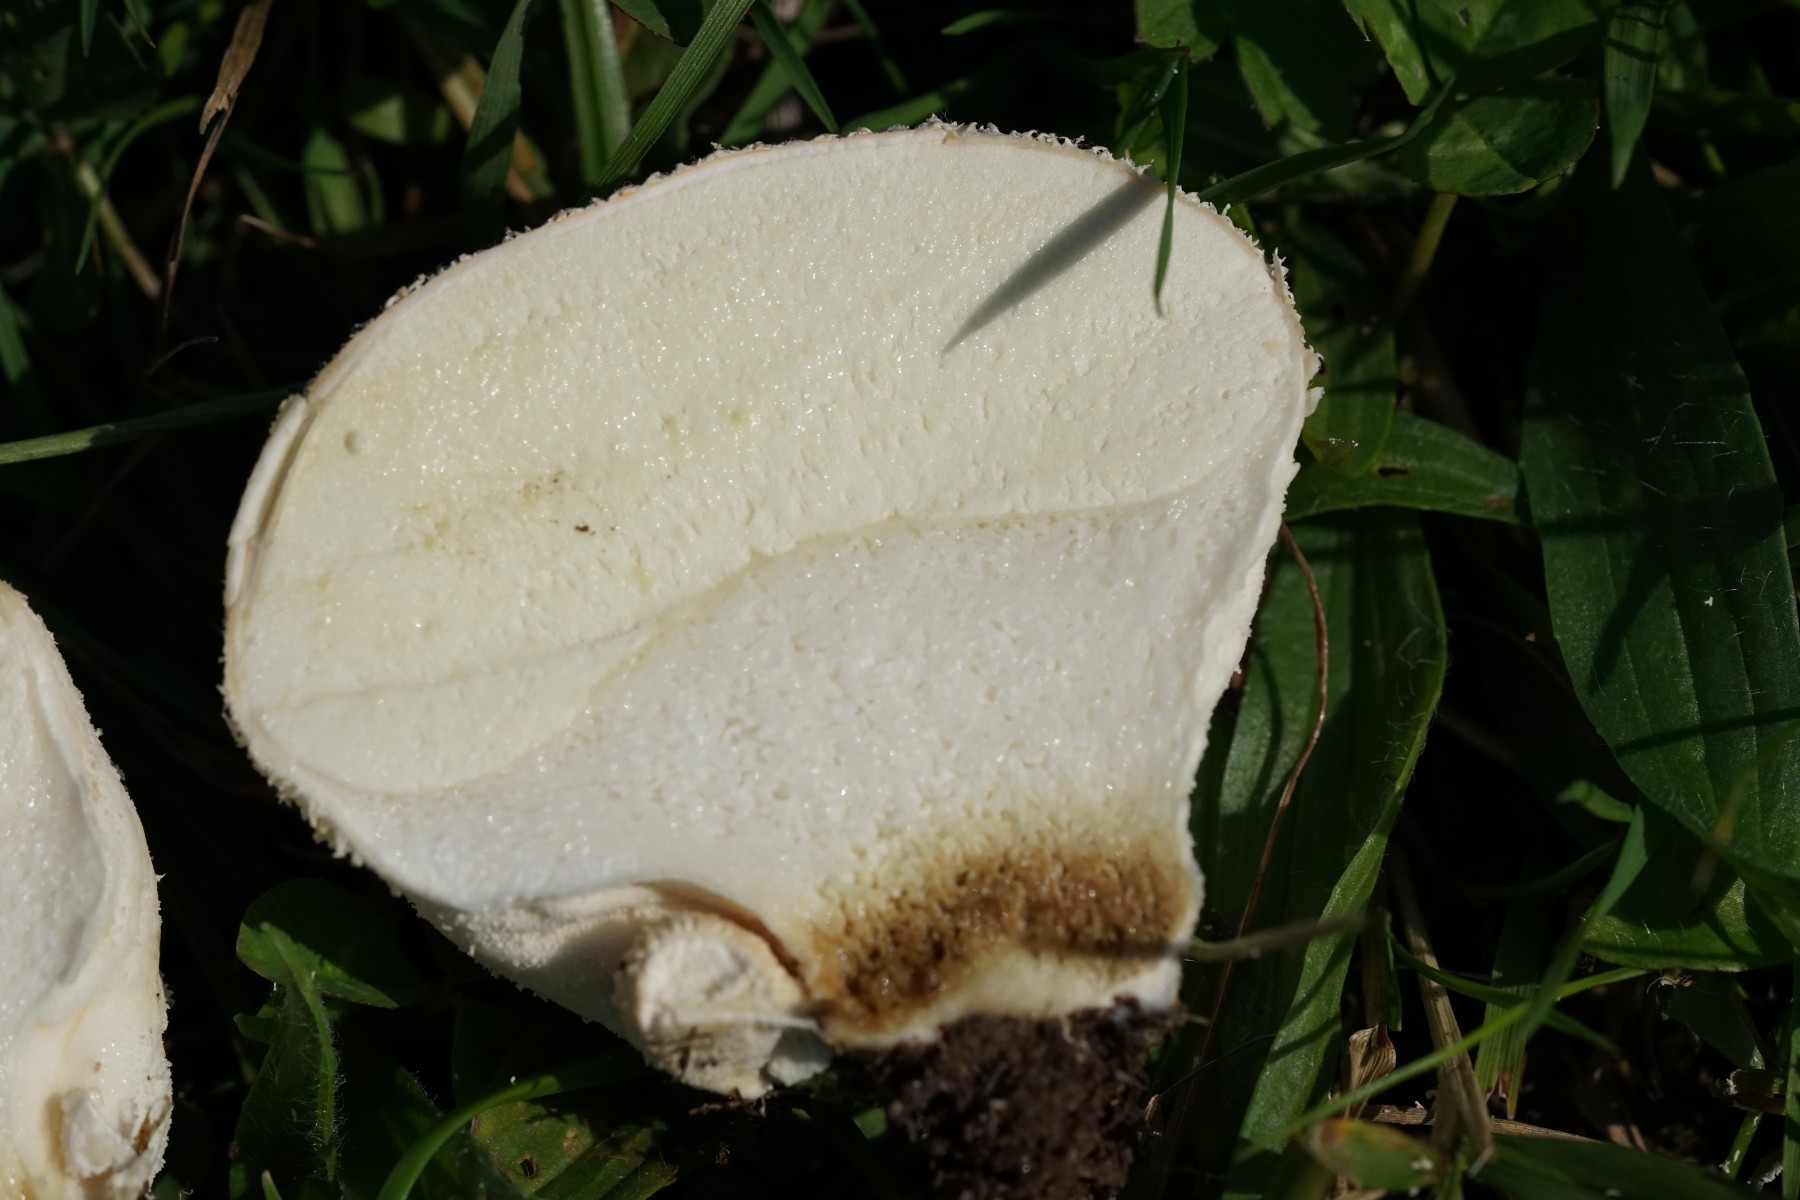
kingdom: Fungi
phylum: Basidiomycota
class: Agaricomycetes
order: Agaricales
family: Lycoperdaceae
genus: Lycoperdon
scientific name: Lycoperdon pratense
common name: flad støvbold
